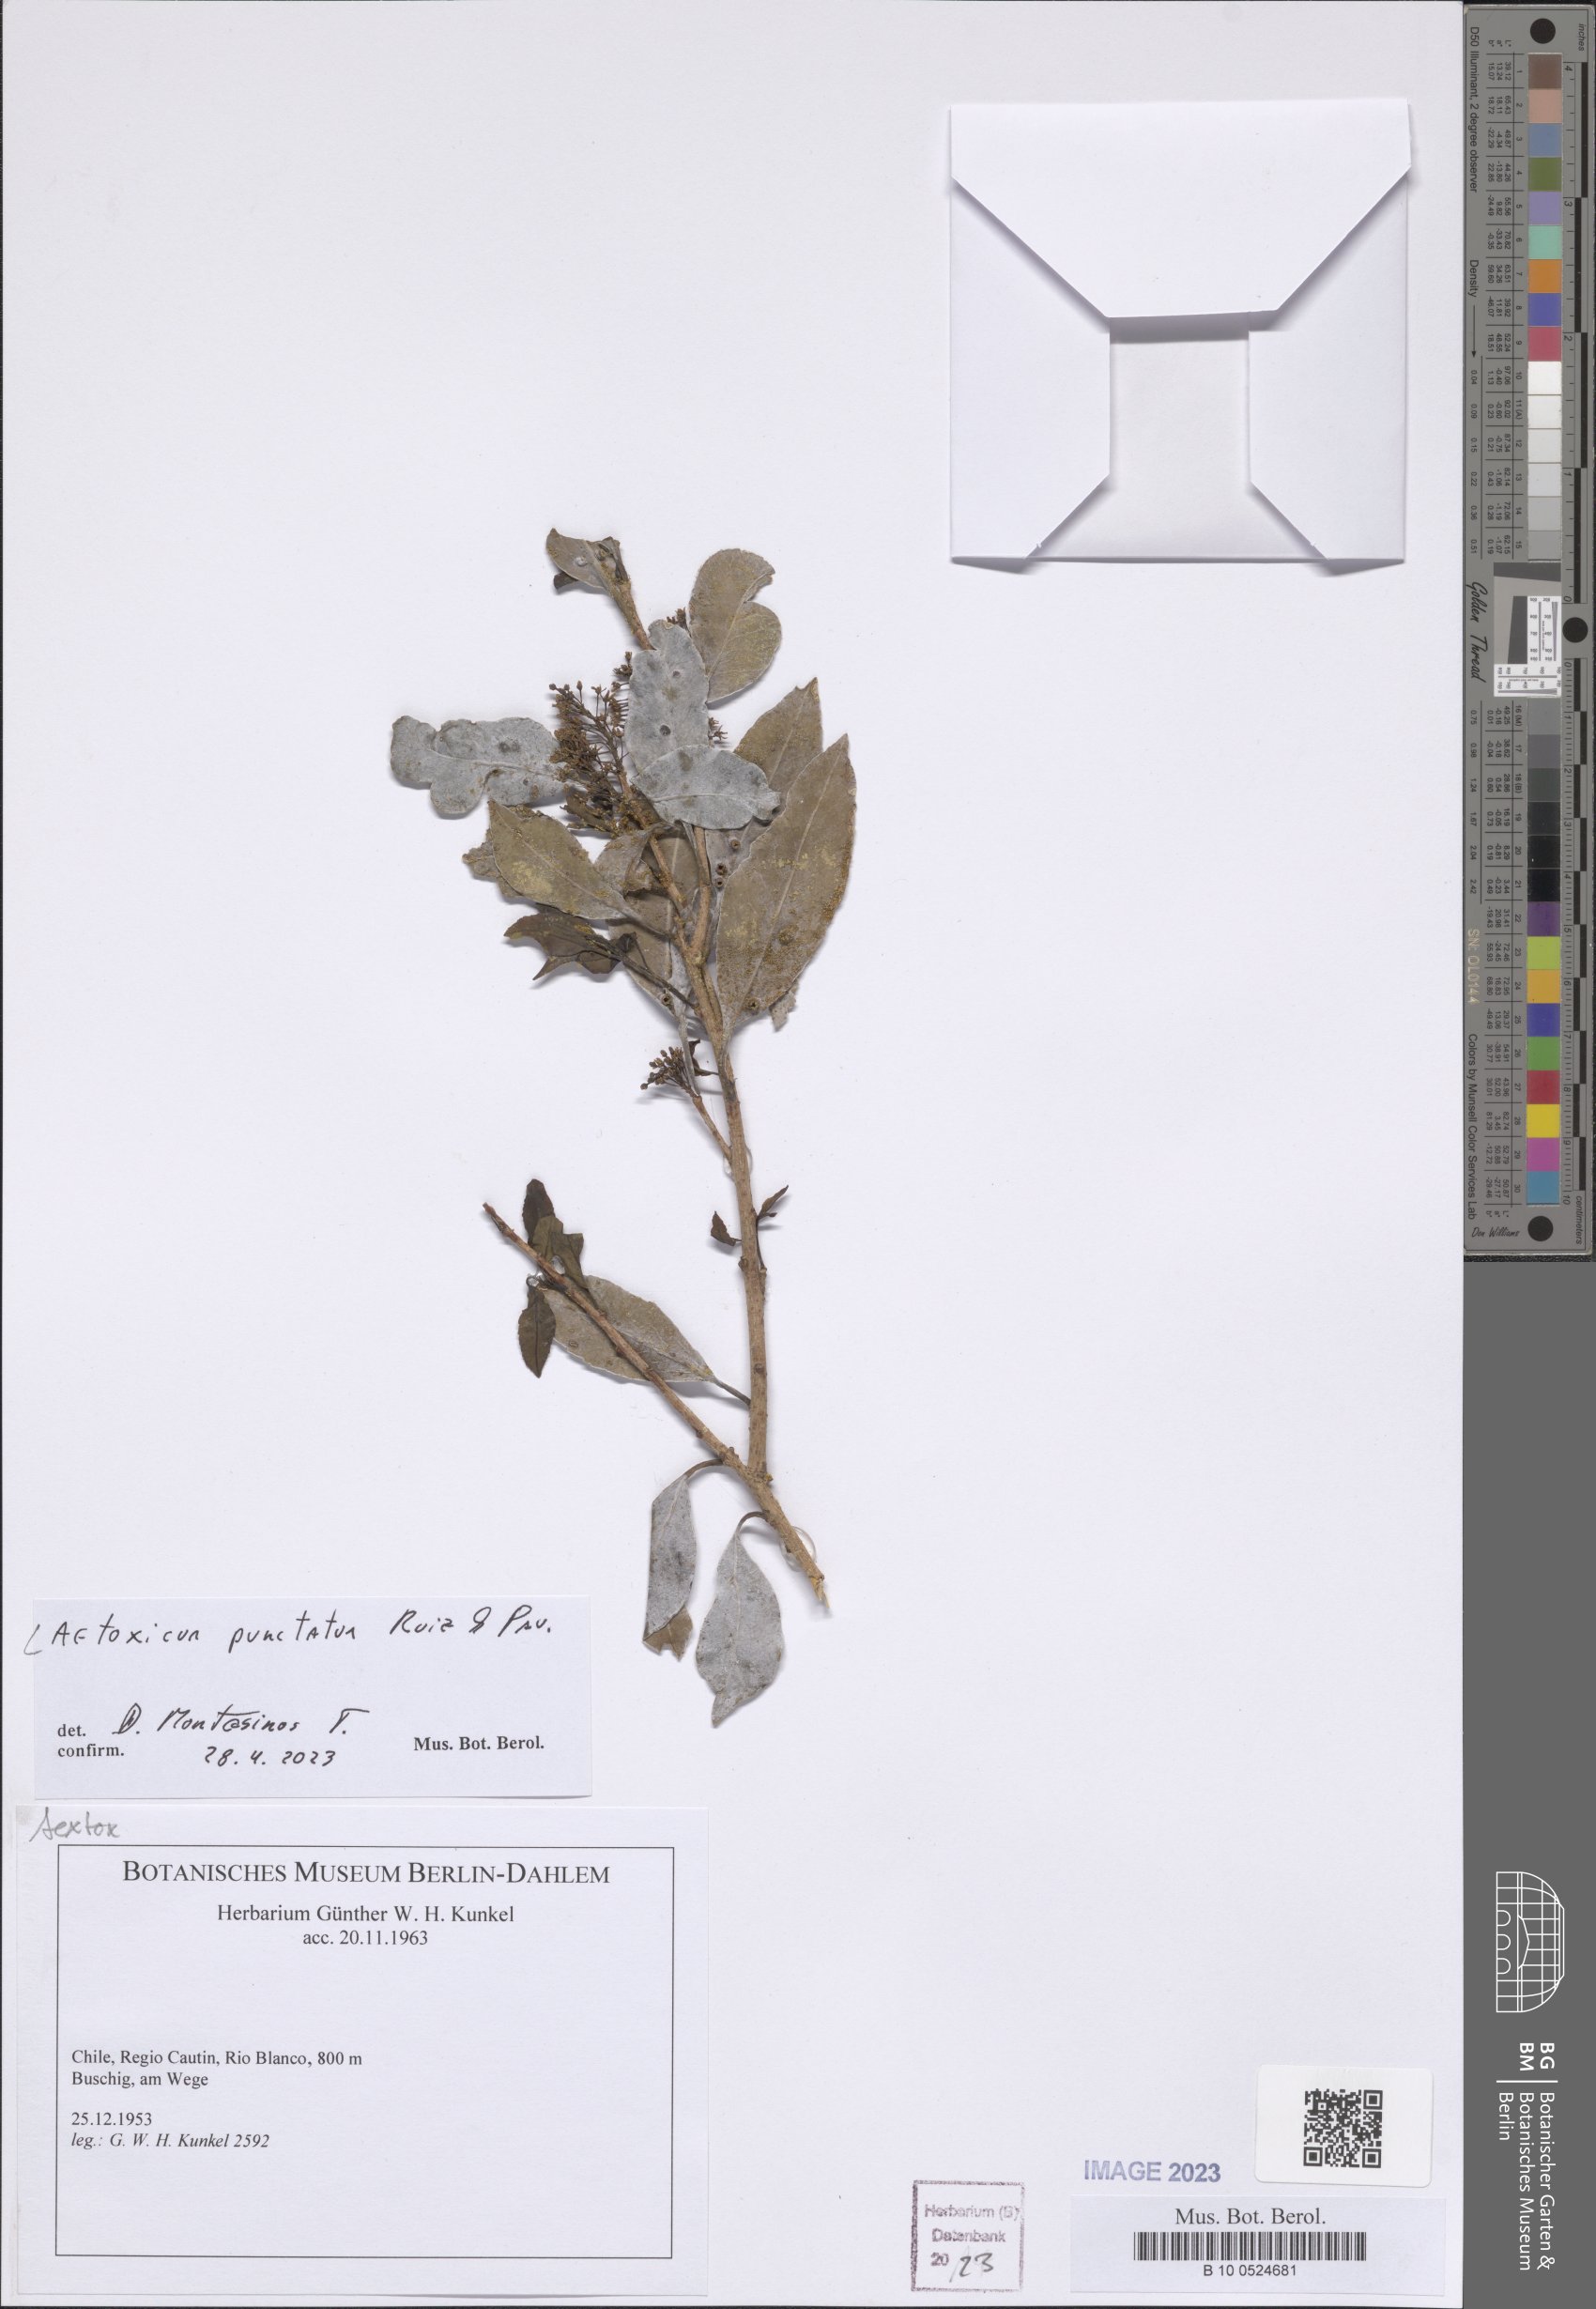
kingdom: Plantae
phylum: Tracheophyta
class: Magnoliopsida
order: Berberidopsidales
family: Aextoxicaceae
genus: Aextoxicon
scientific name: Aextoxicon punctatum
